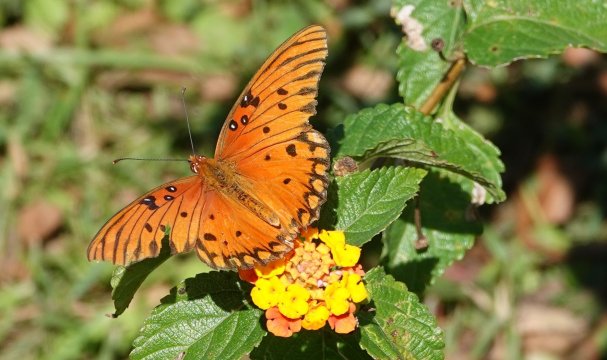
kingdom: Animalia
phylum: Arthropoda
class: Insecta
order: Lepidoptera
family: Nymphalidae
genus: Dione
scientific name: Dione vanillae
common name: Gulf Fritillary
